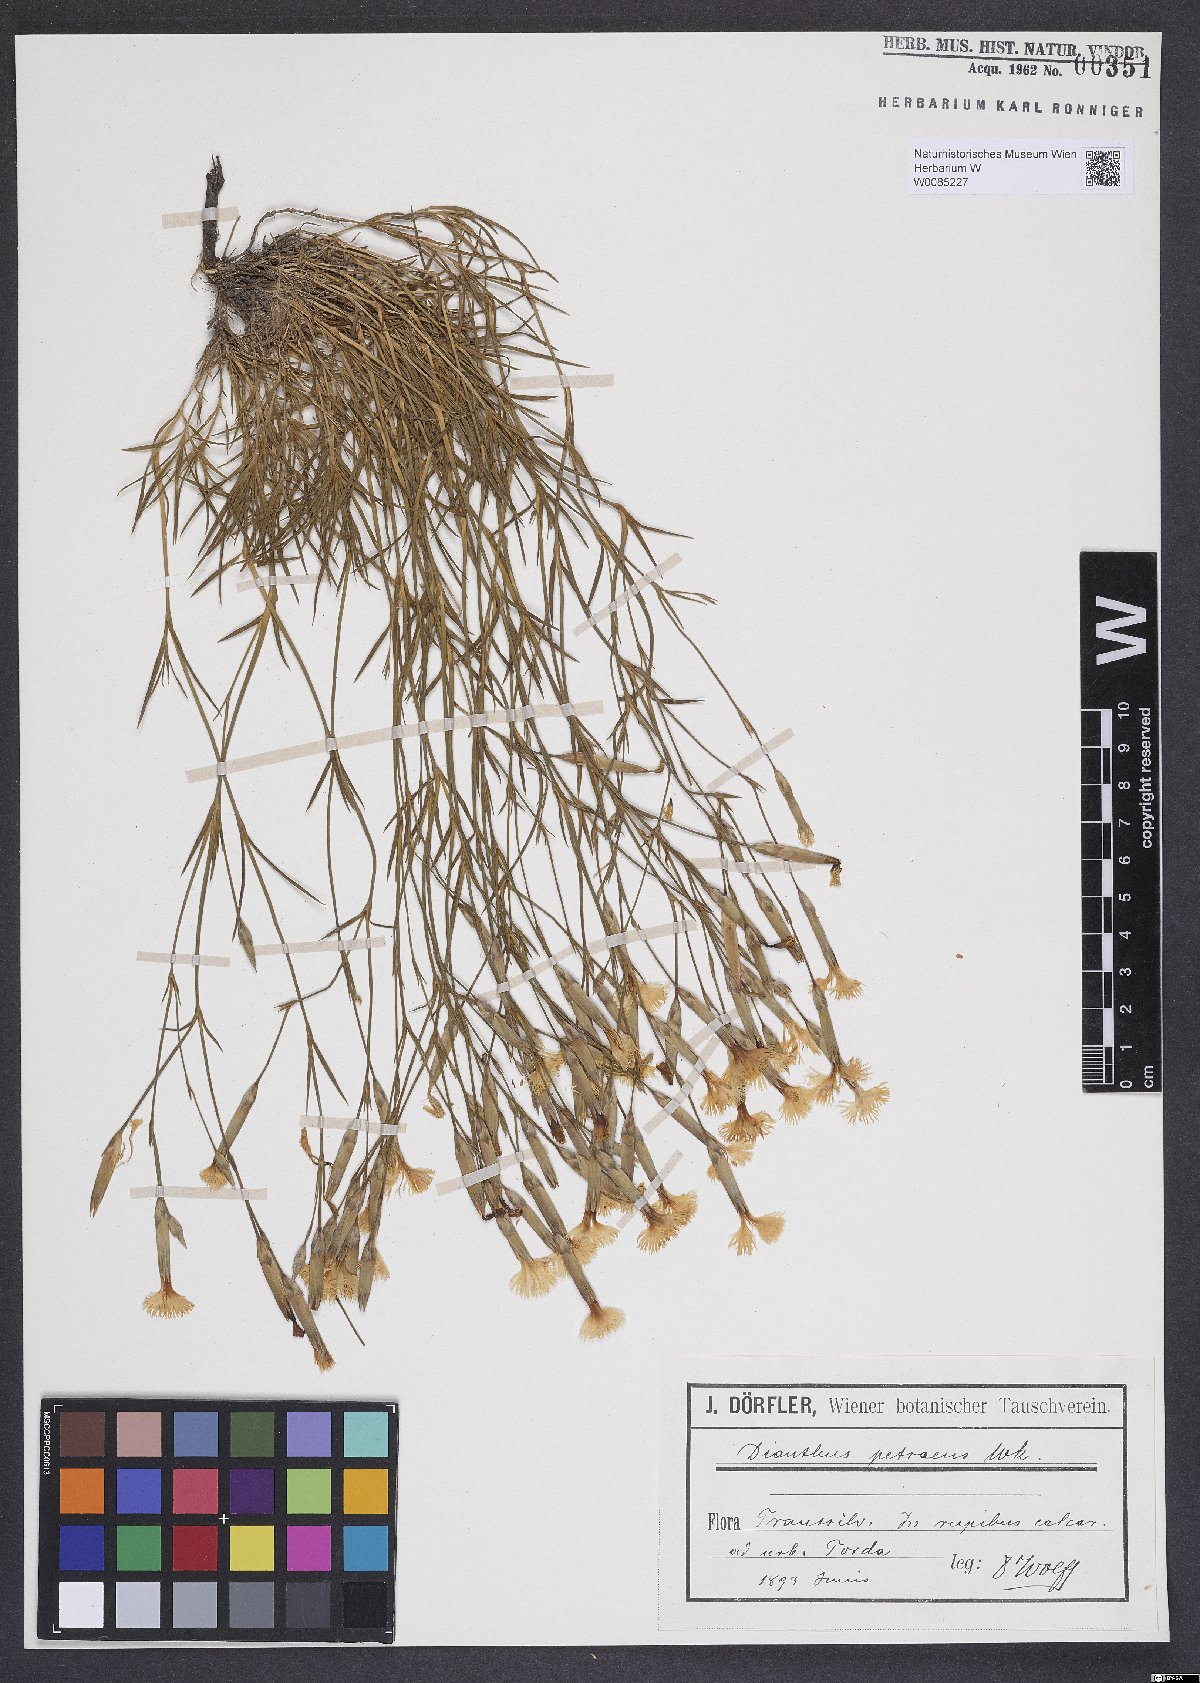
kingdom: Plantae
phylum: Tracheophyta
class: Magnoliopsida
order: Caryophyllales
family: Caryophyllaceae
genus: Dianthus
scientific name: Dianthus petraeus
